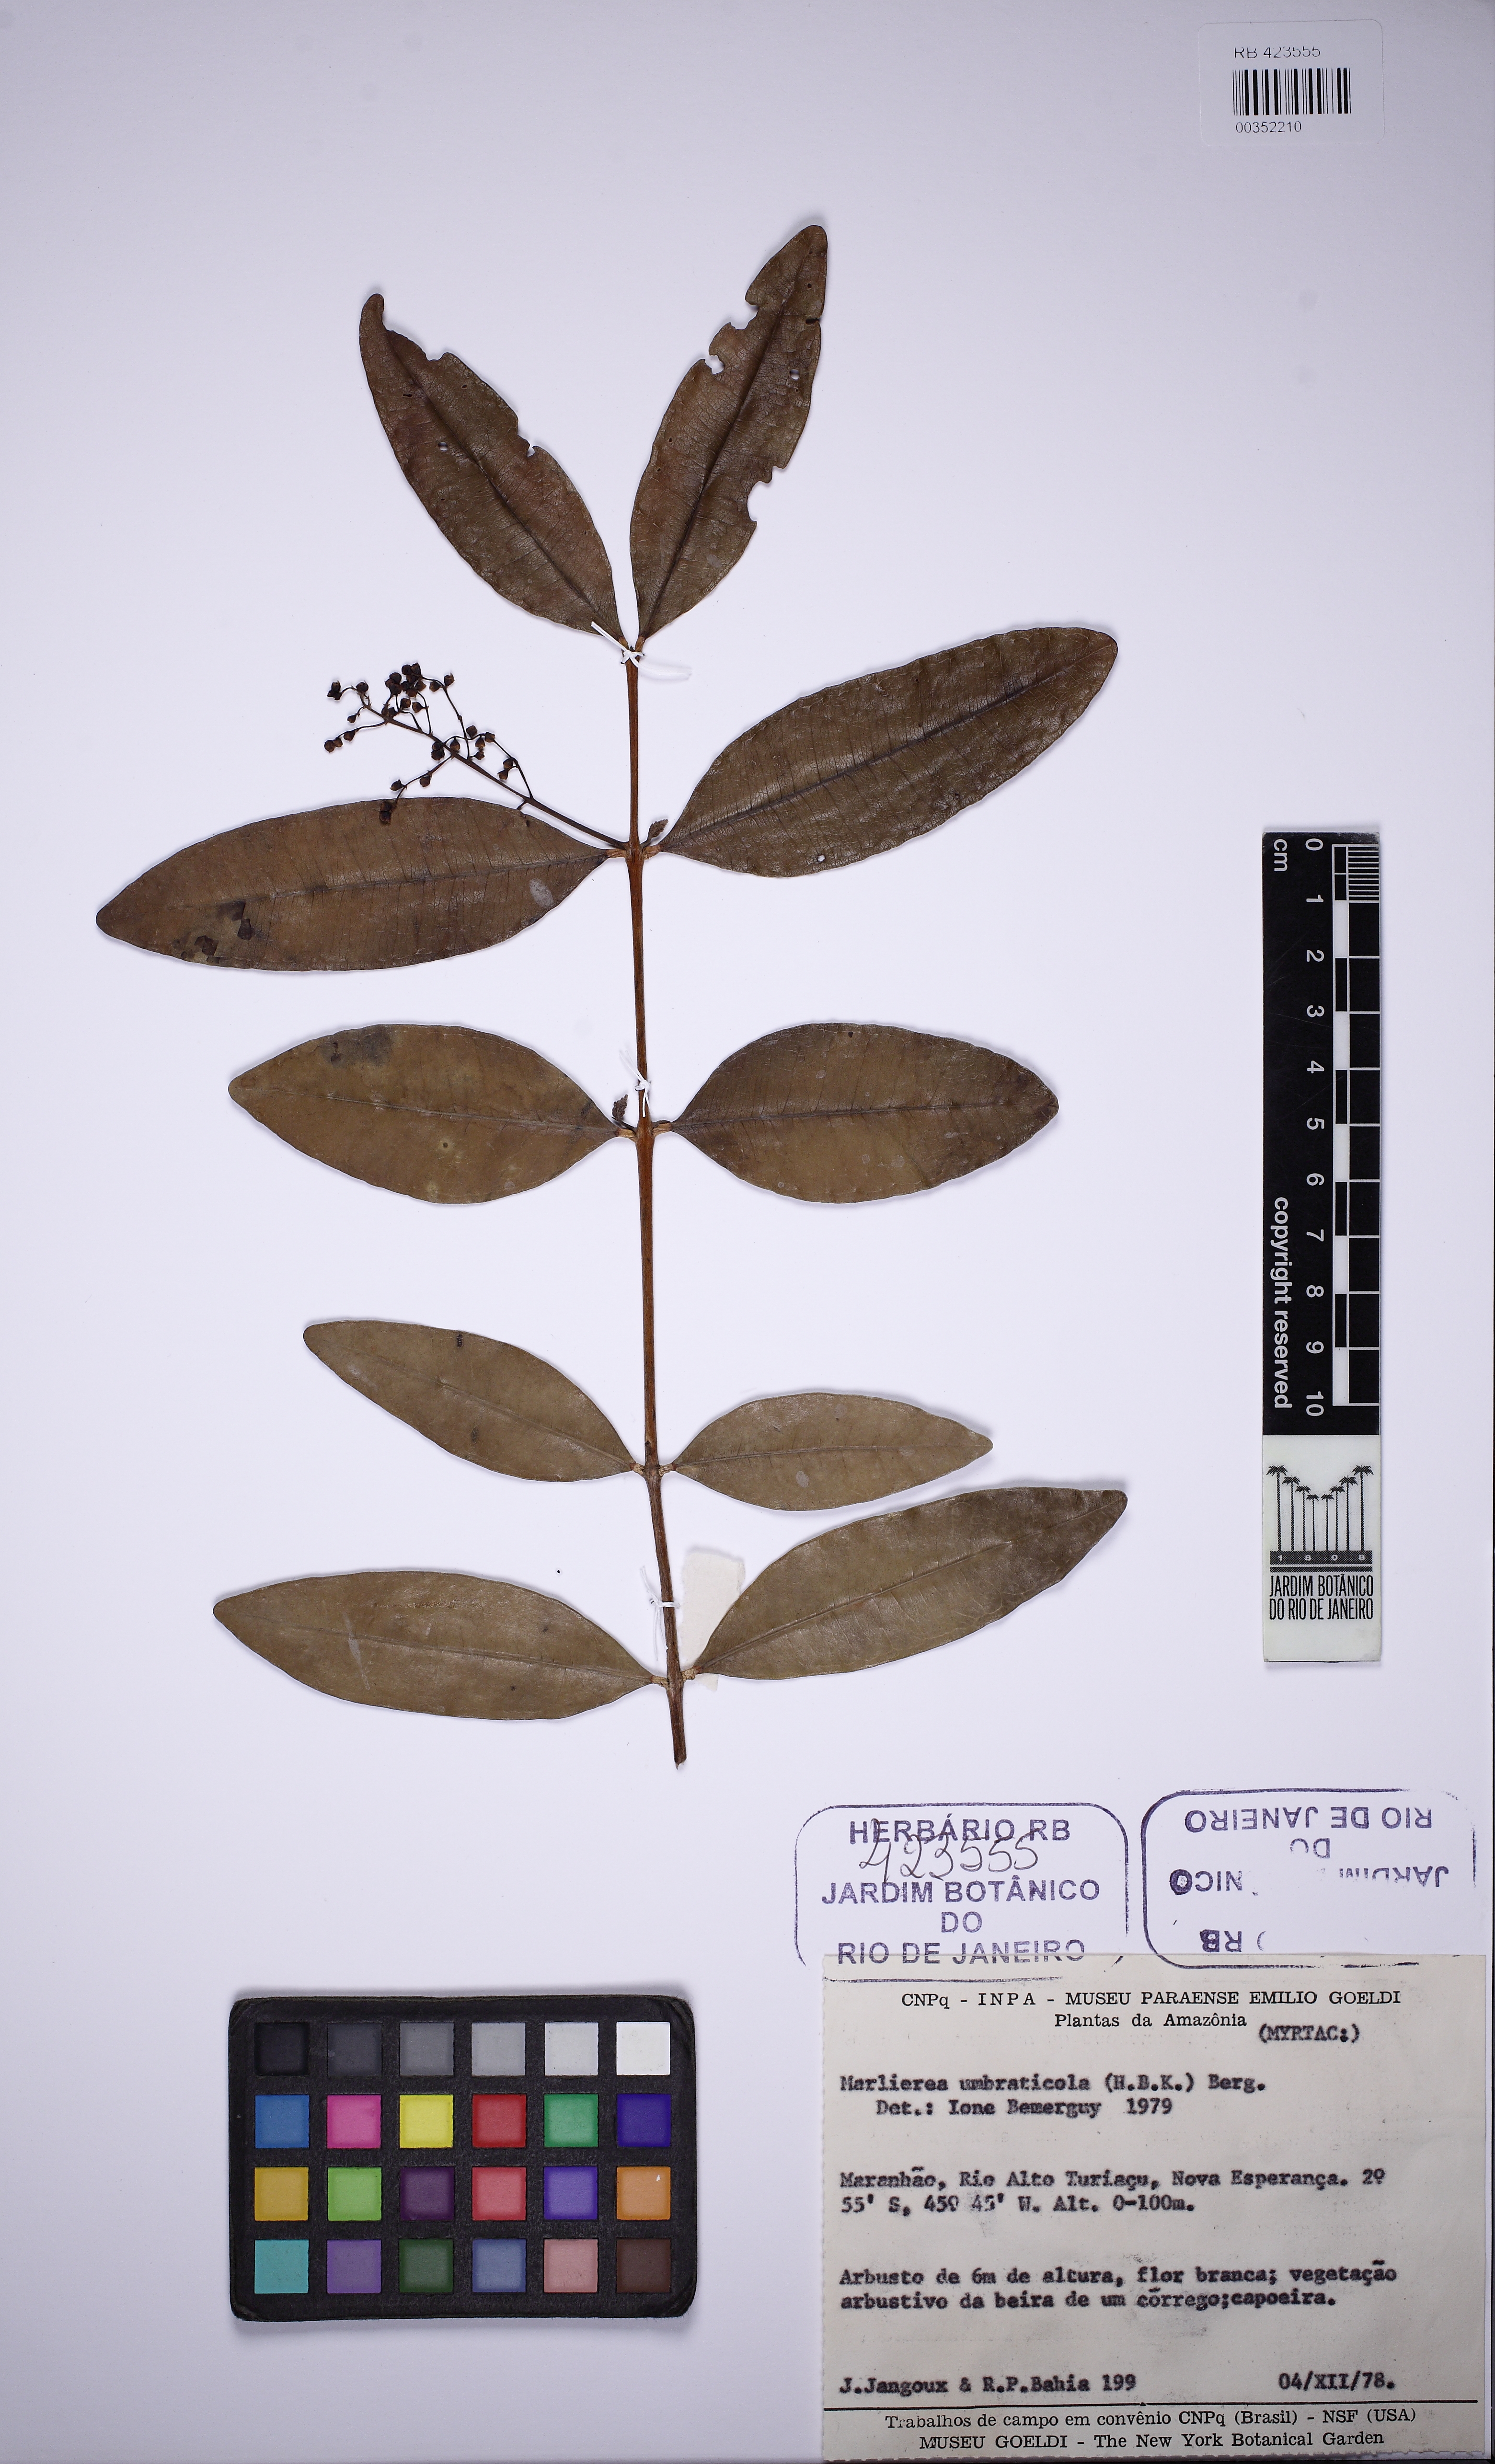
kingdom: Plantae
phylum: Tracheophyta
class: Magnoliopsida
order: Myrtales
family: Myrtaceae
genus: Myrcia
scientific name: Myrcia umbraticola
